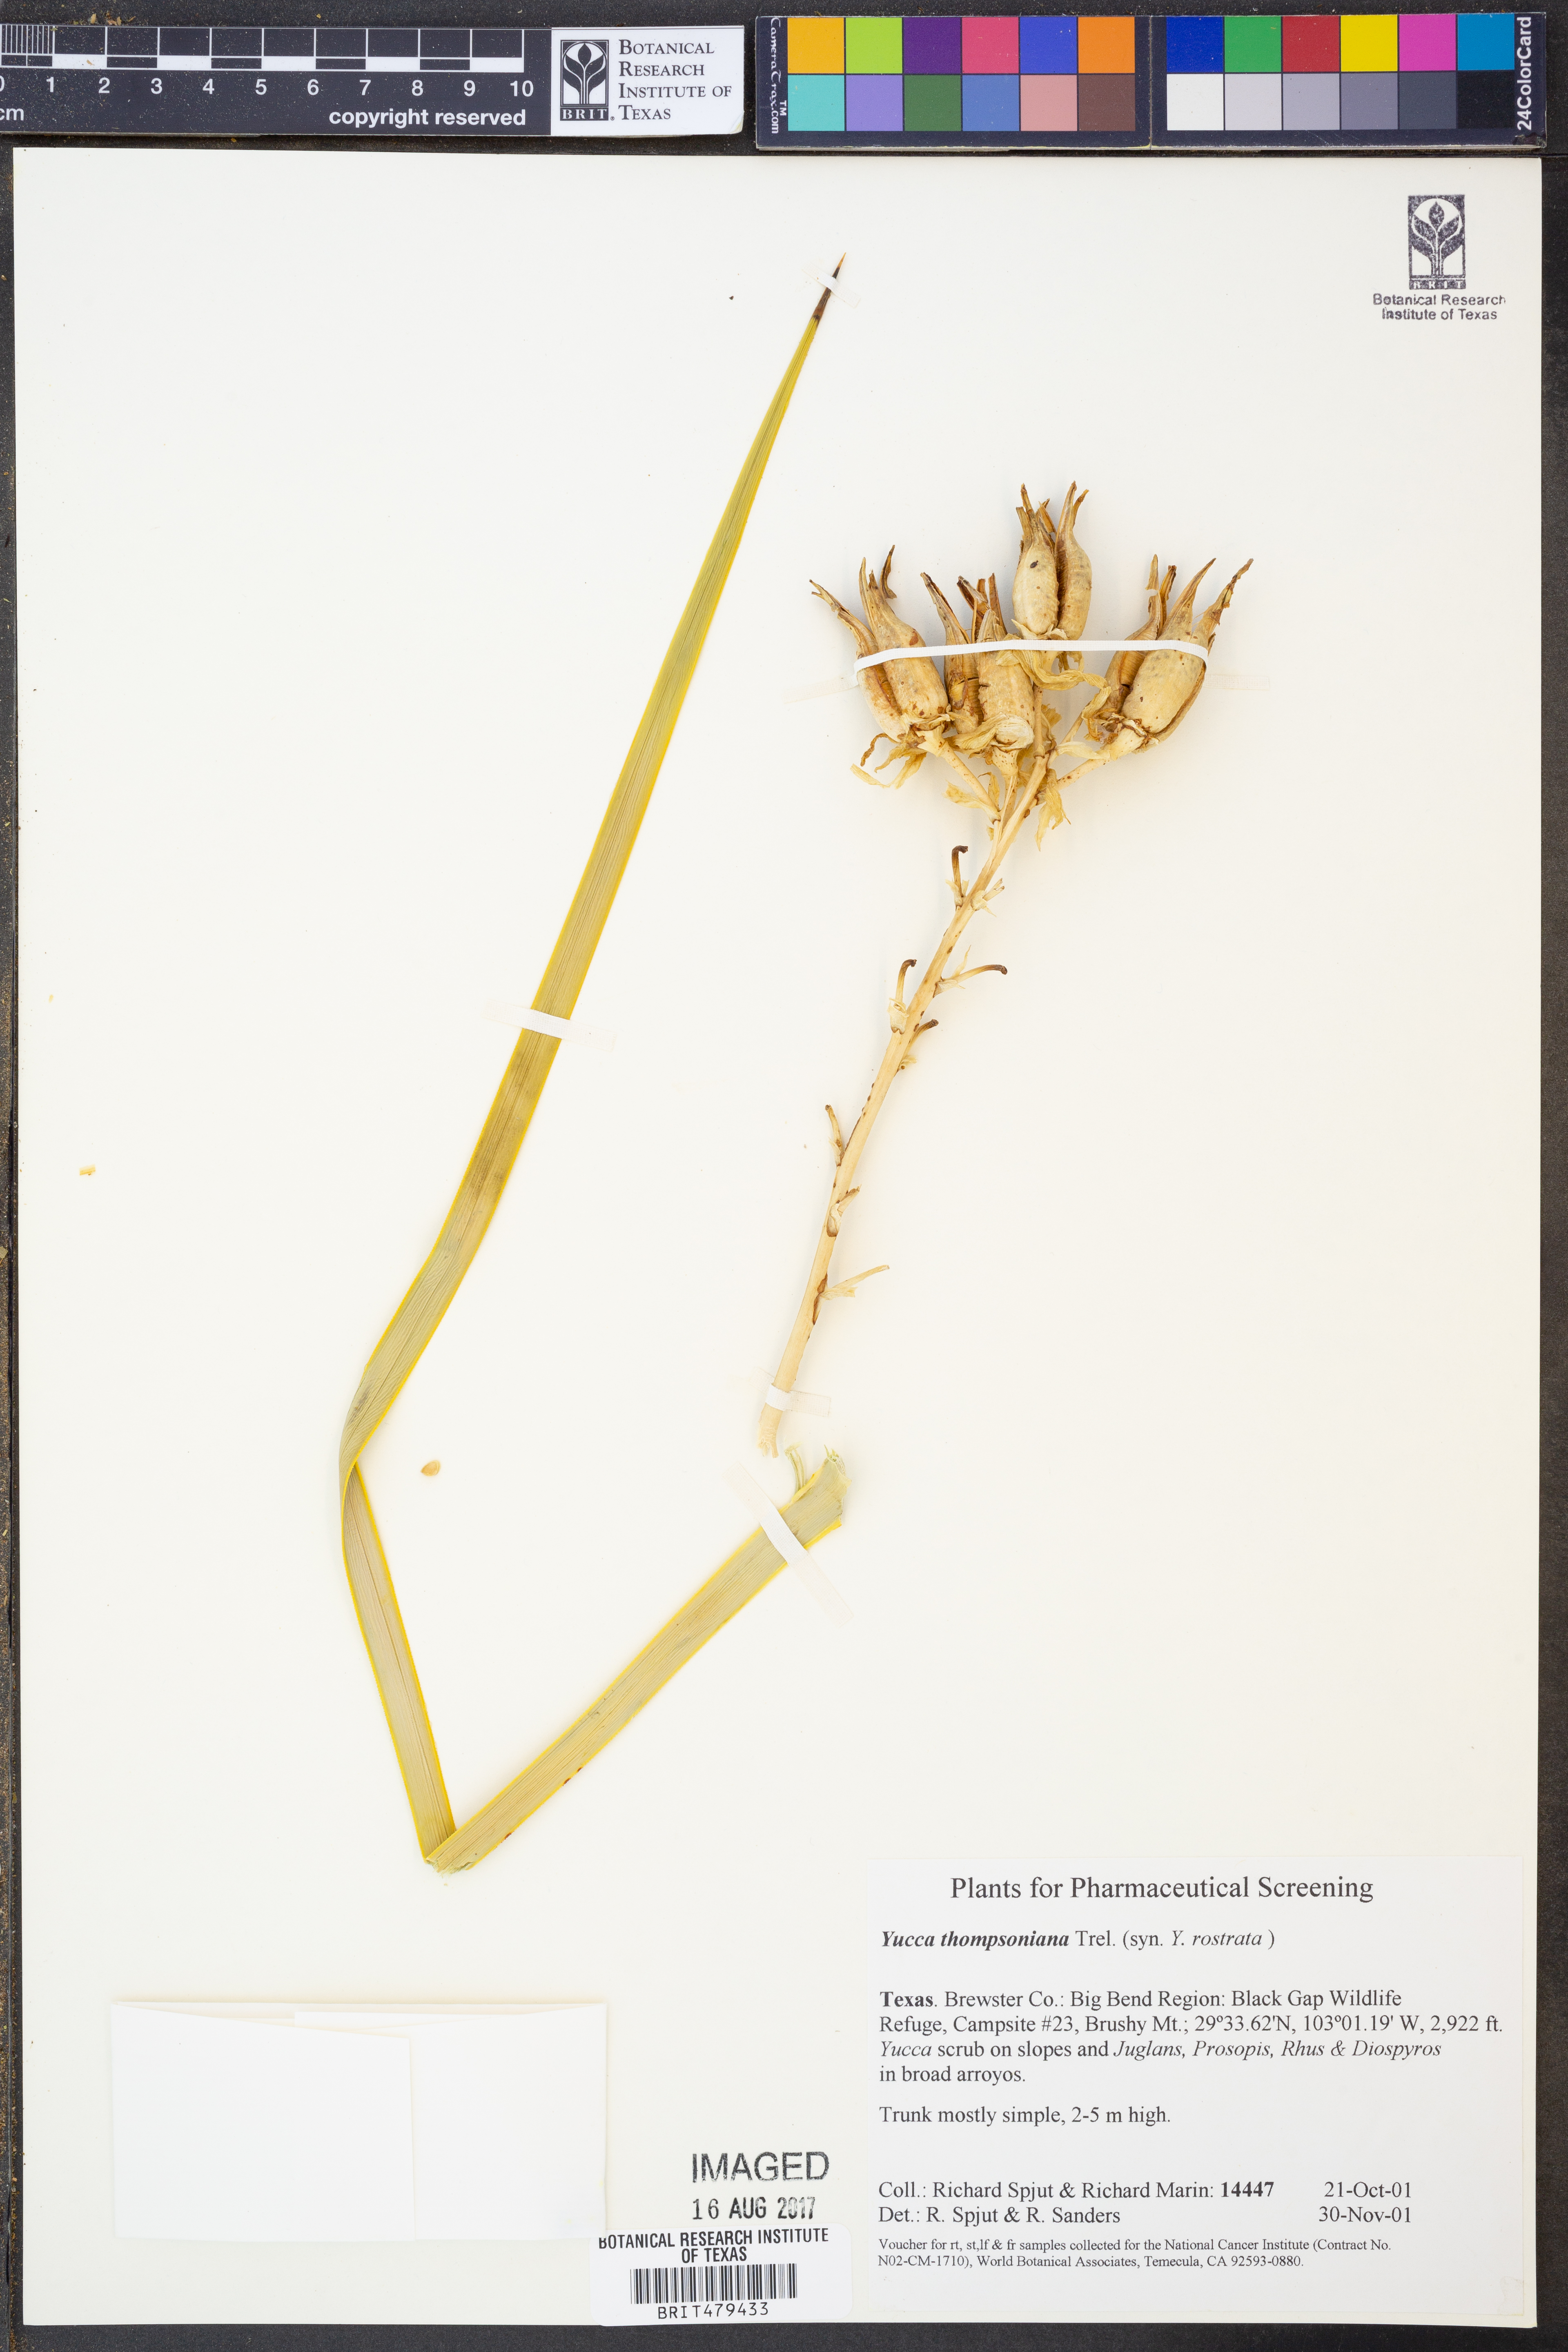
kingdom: Plantae
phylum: Tracheophyta
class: Liliopsida
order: Asparagales
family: Asparagaceae
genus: Yucca
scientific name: Yucca thompsoniana
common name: Trans-pecos yucca
